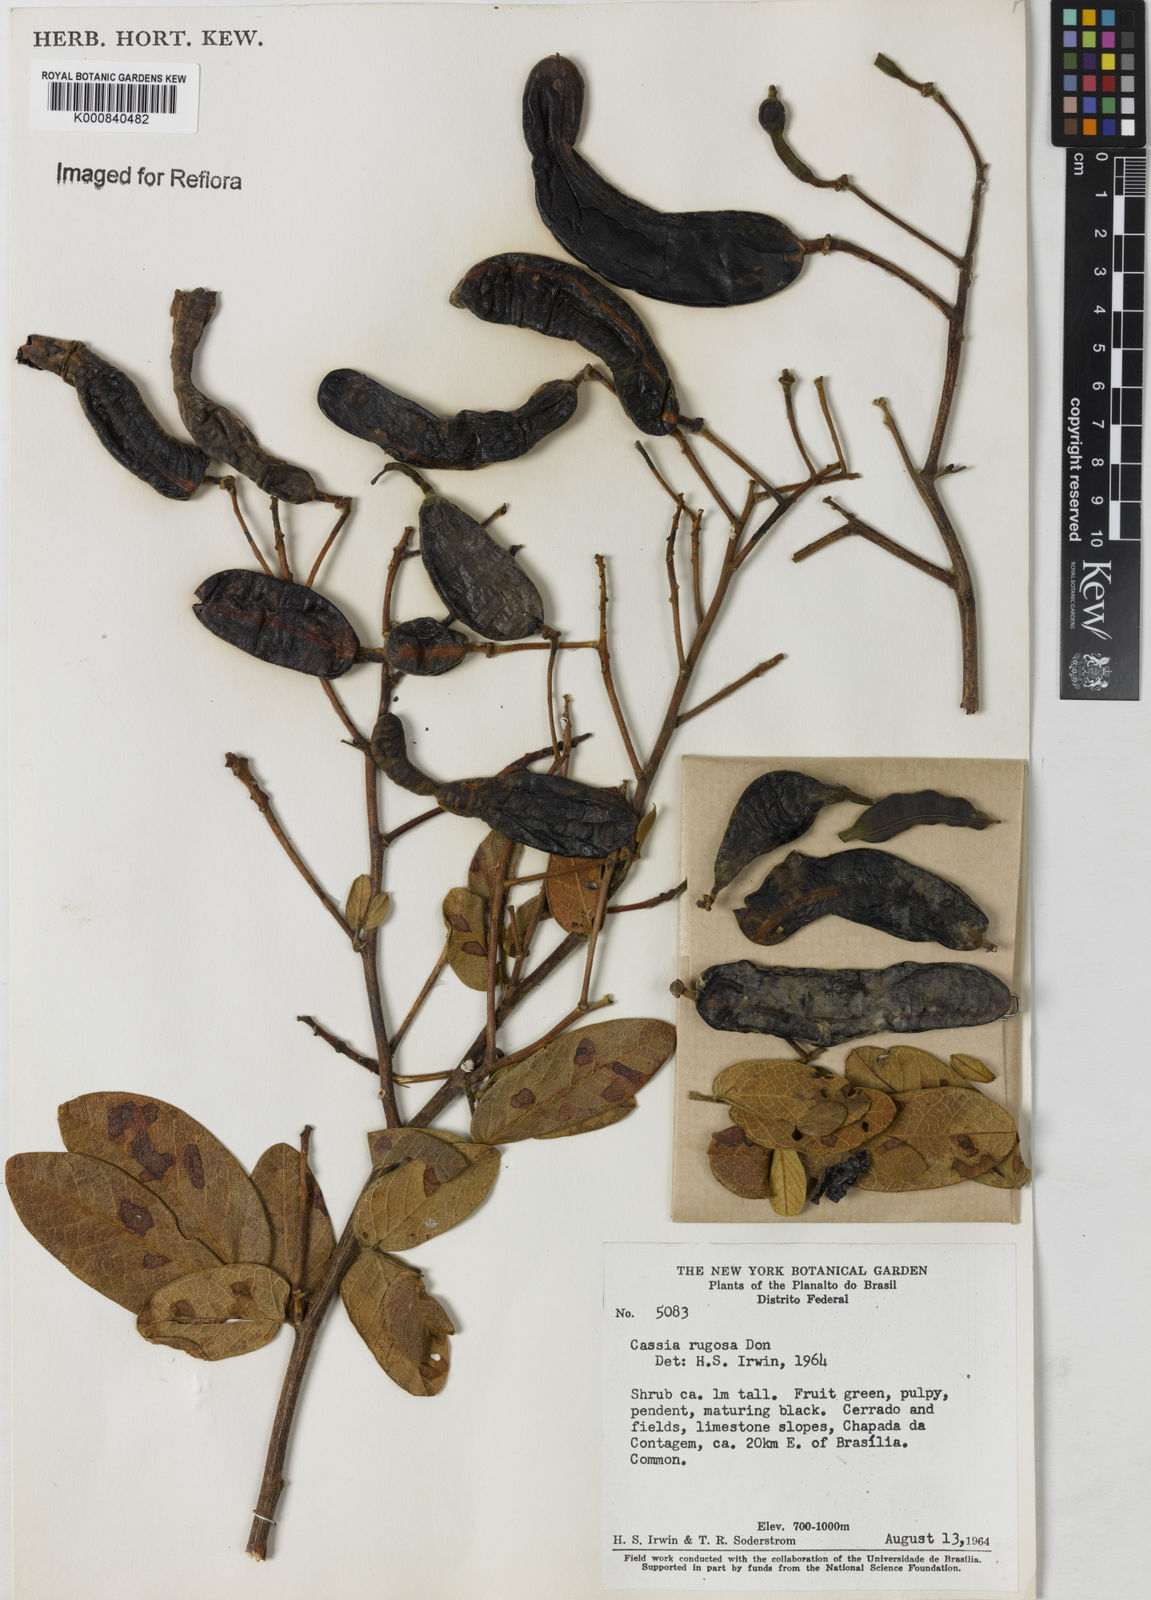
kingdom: Plantae
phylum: Tracheophyta
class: Magnoliopsida
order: Fabales
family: Fabaceae
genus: Senna
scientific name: Senna rugosa
